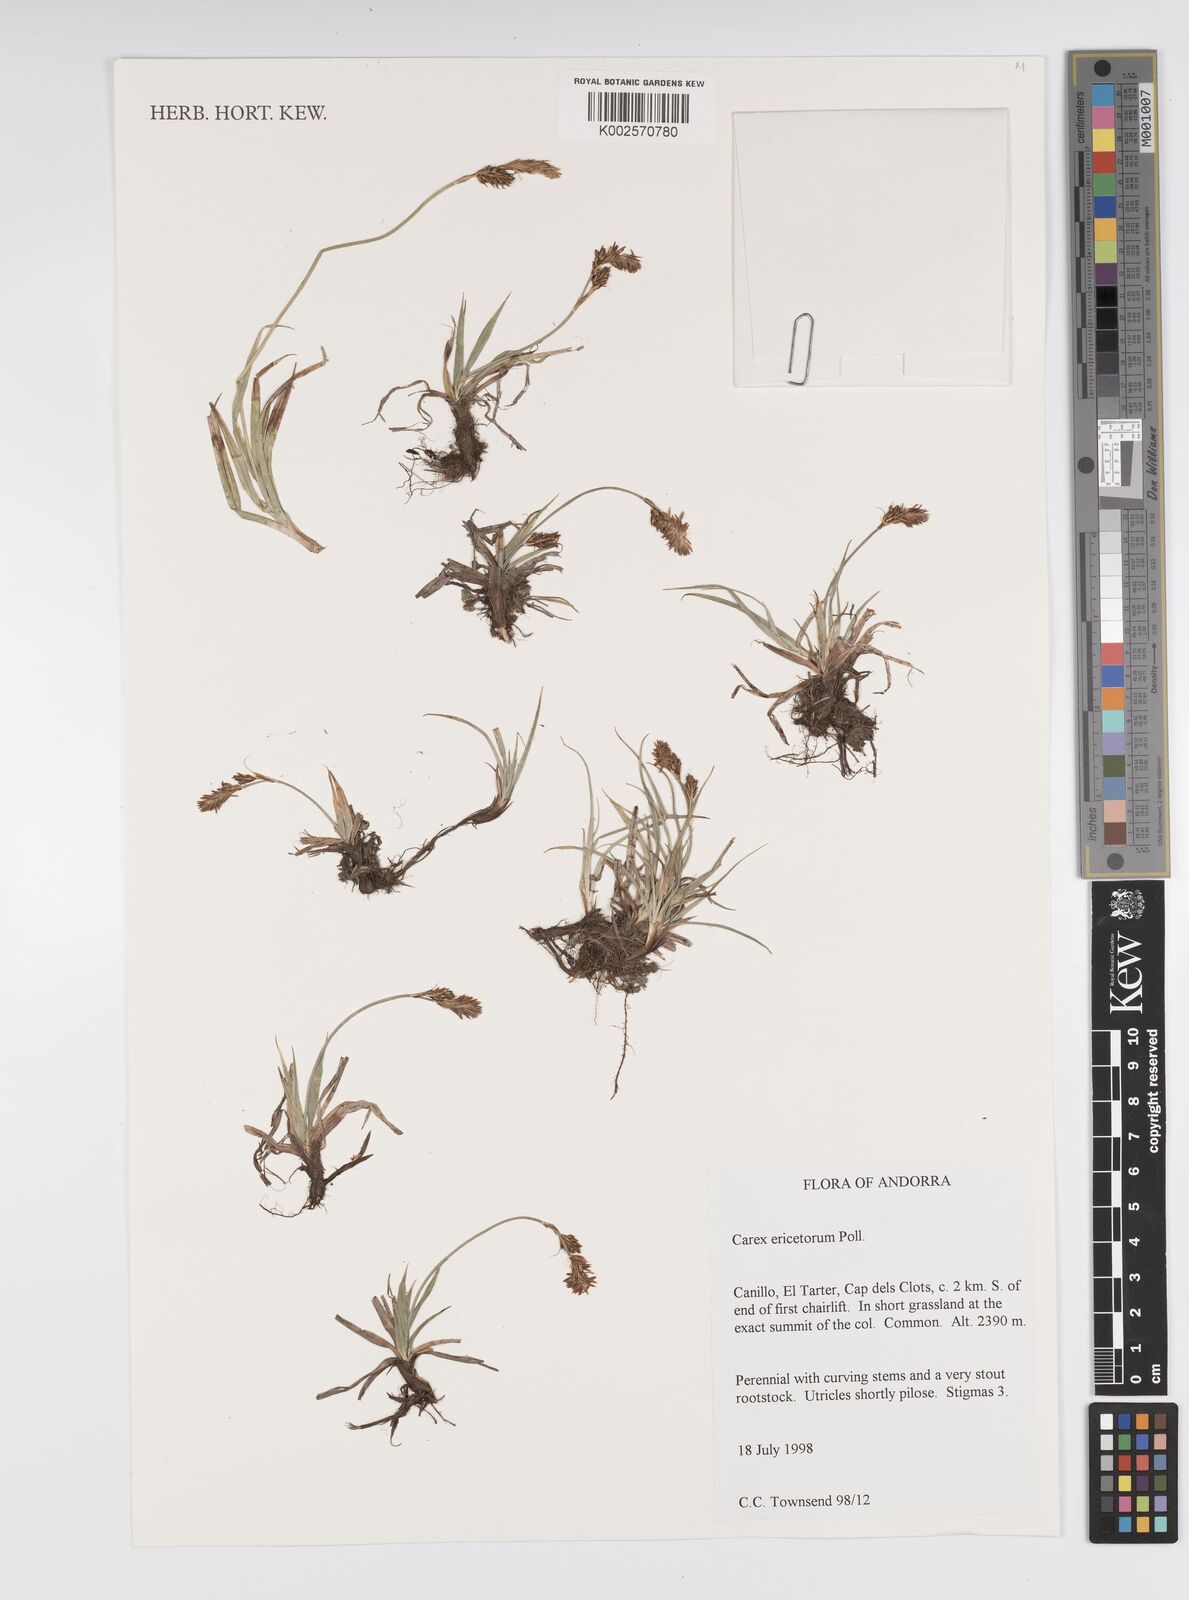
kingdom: Plantae
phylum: Tracheophyta
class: Liliopsida
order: Poales
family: Cyperaceae
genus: Carex
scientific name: Carex ericetorum
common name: Rare spring-sedge
